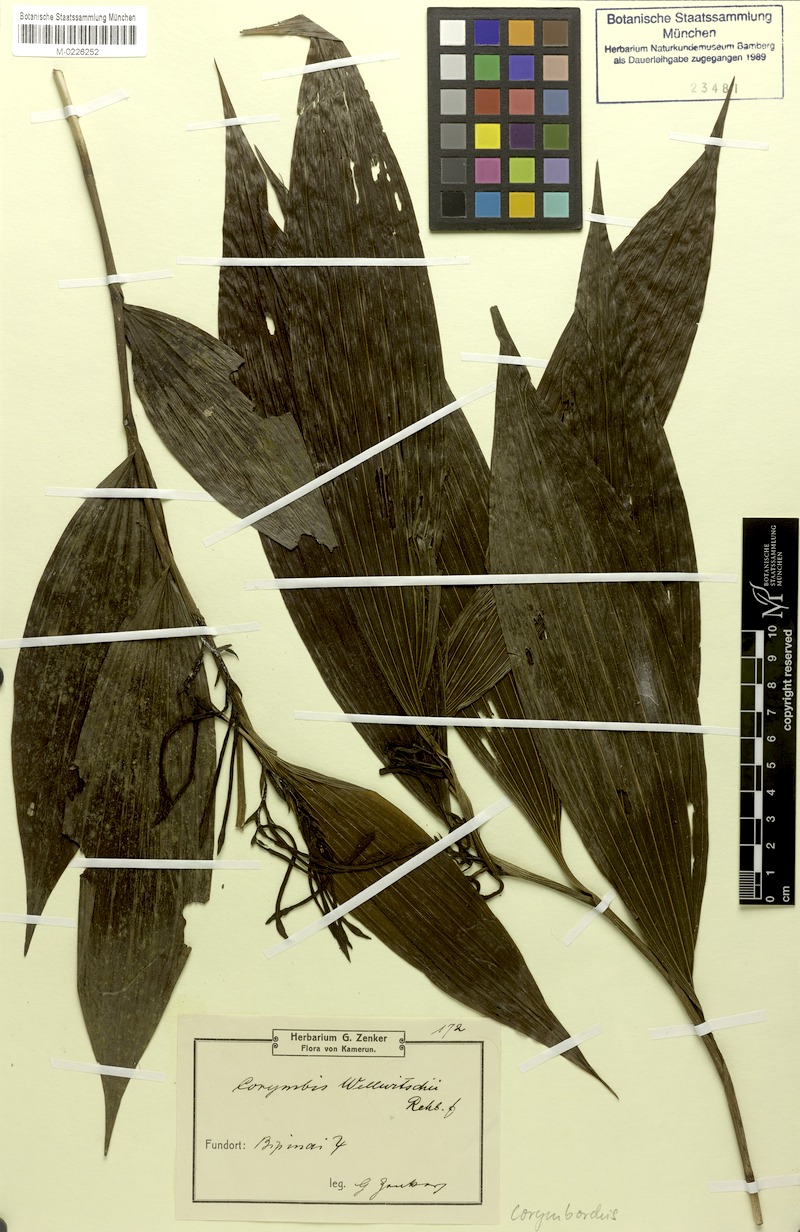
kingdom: Plantae
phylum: Tracheophyta
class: Liliopsida
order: Asparagales
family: Orchidaceae
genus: Corymborkis
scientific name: Corymborkis corymbis
